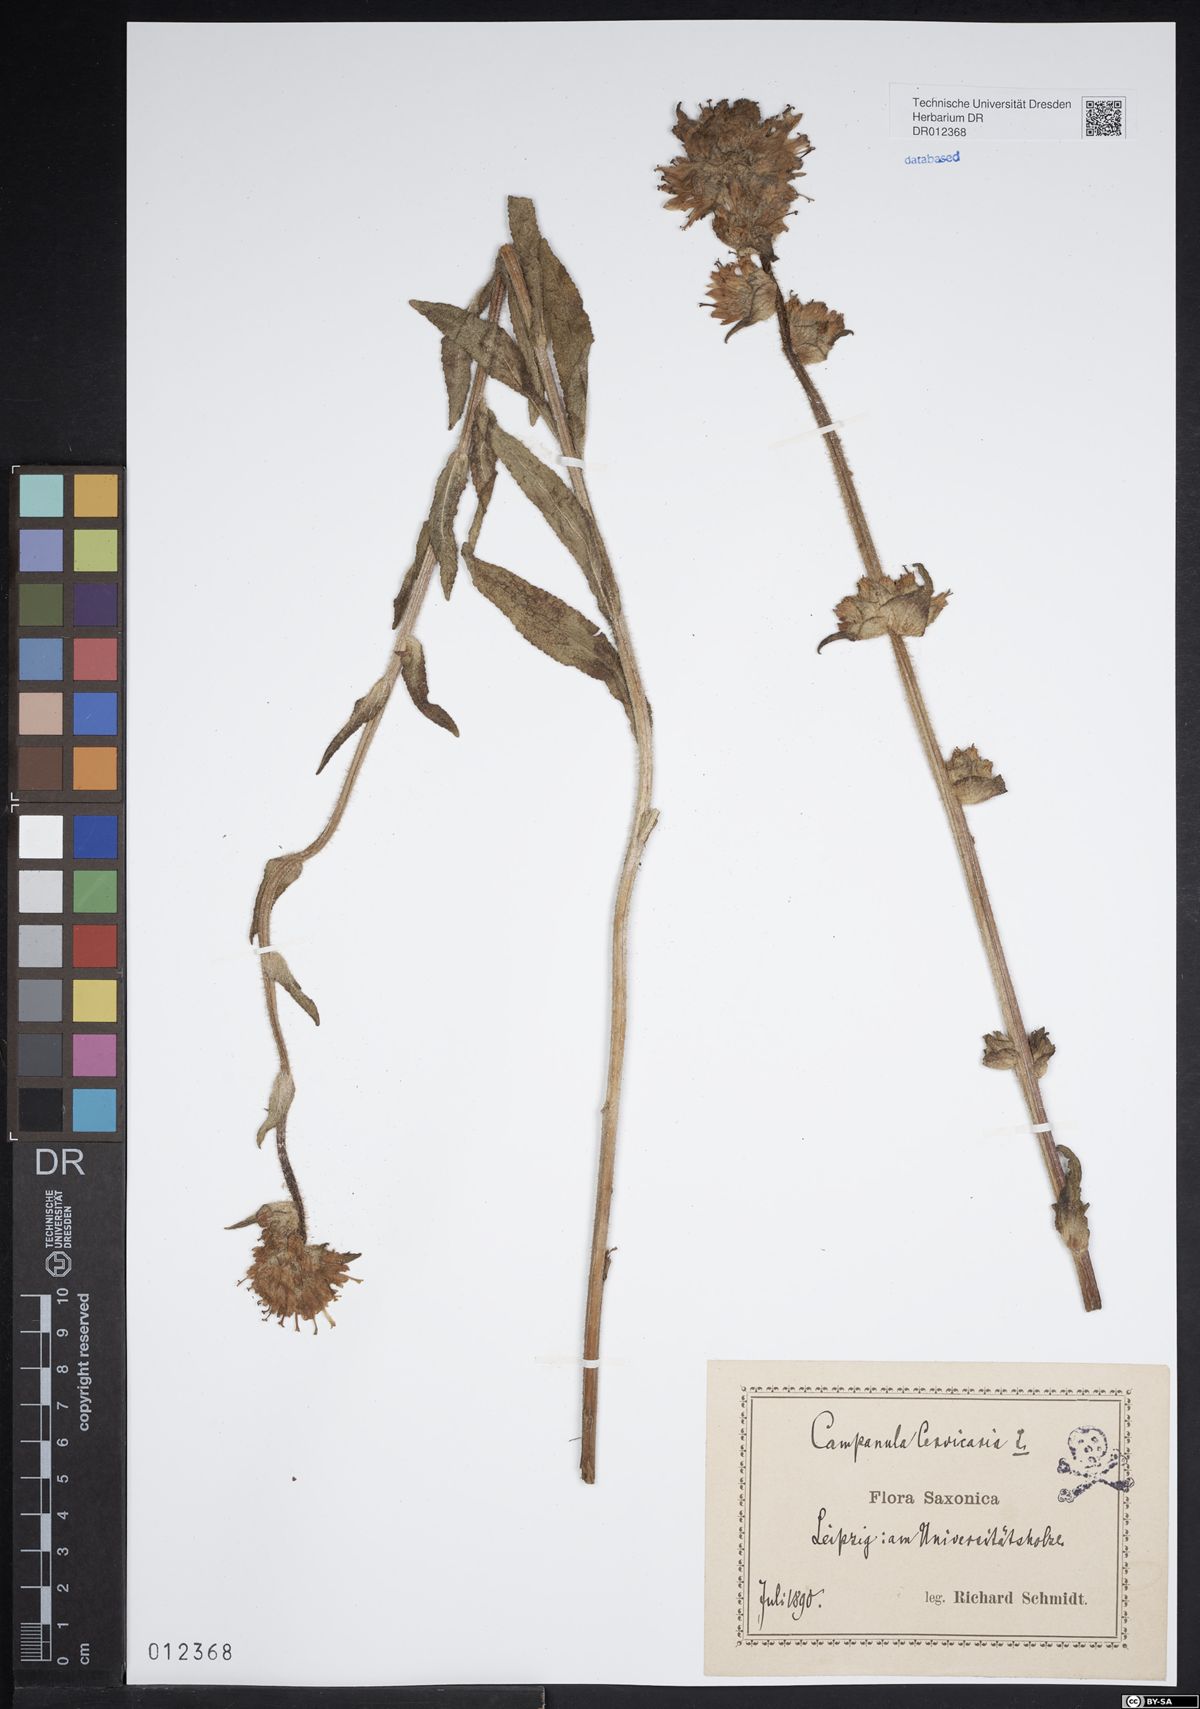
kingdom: Plantae
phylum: Tracheophyta
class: Magnoliopsida
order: Asterales
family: Campanulaceae
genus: Campanula
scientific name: Campanula cervicaria
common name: Bristly bellflower
